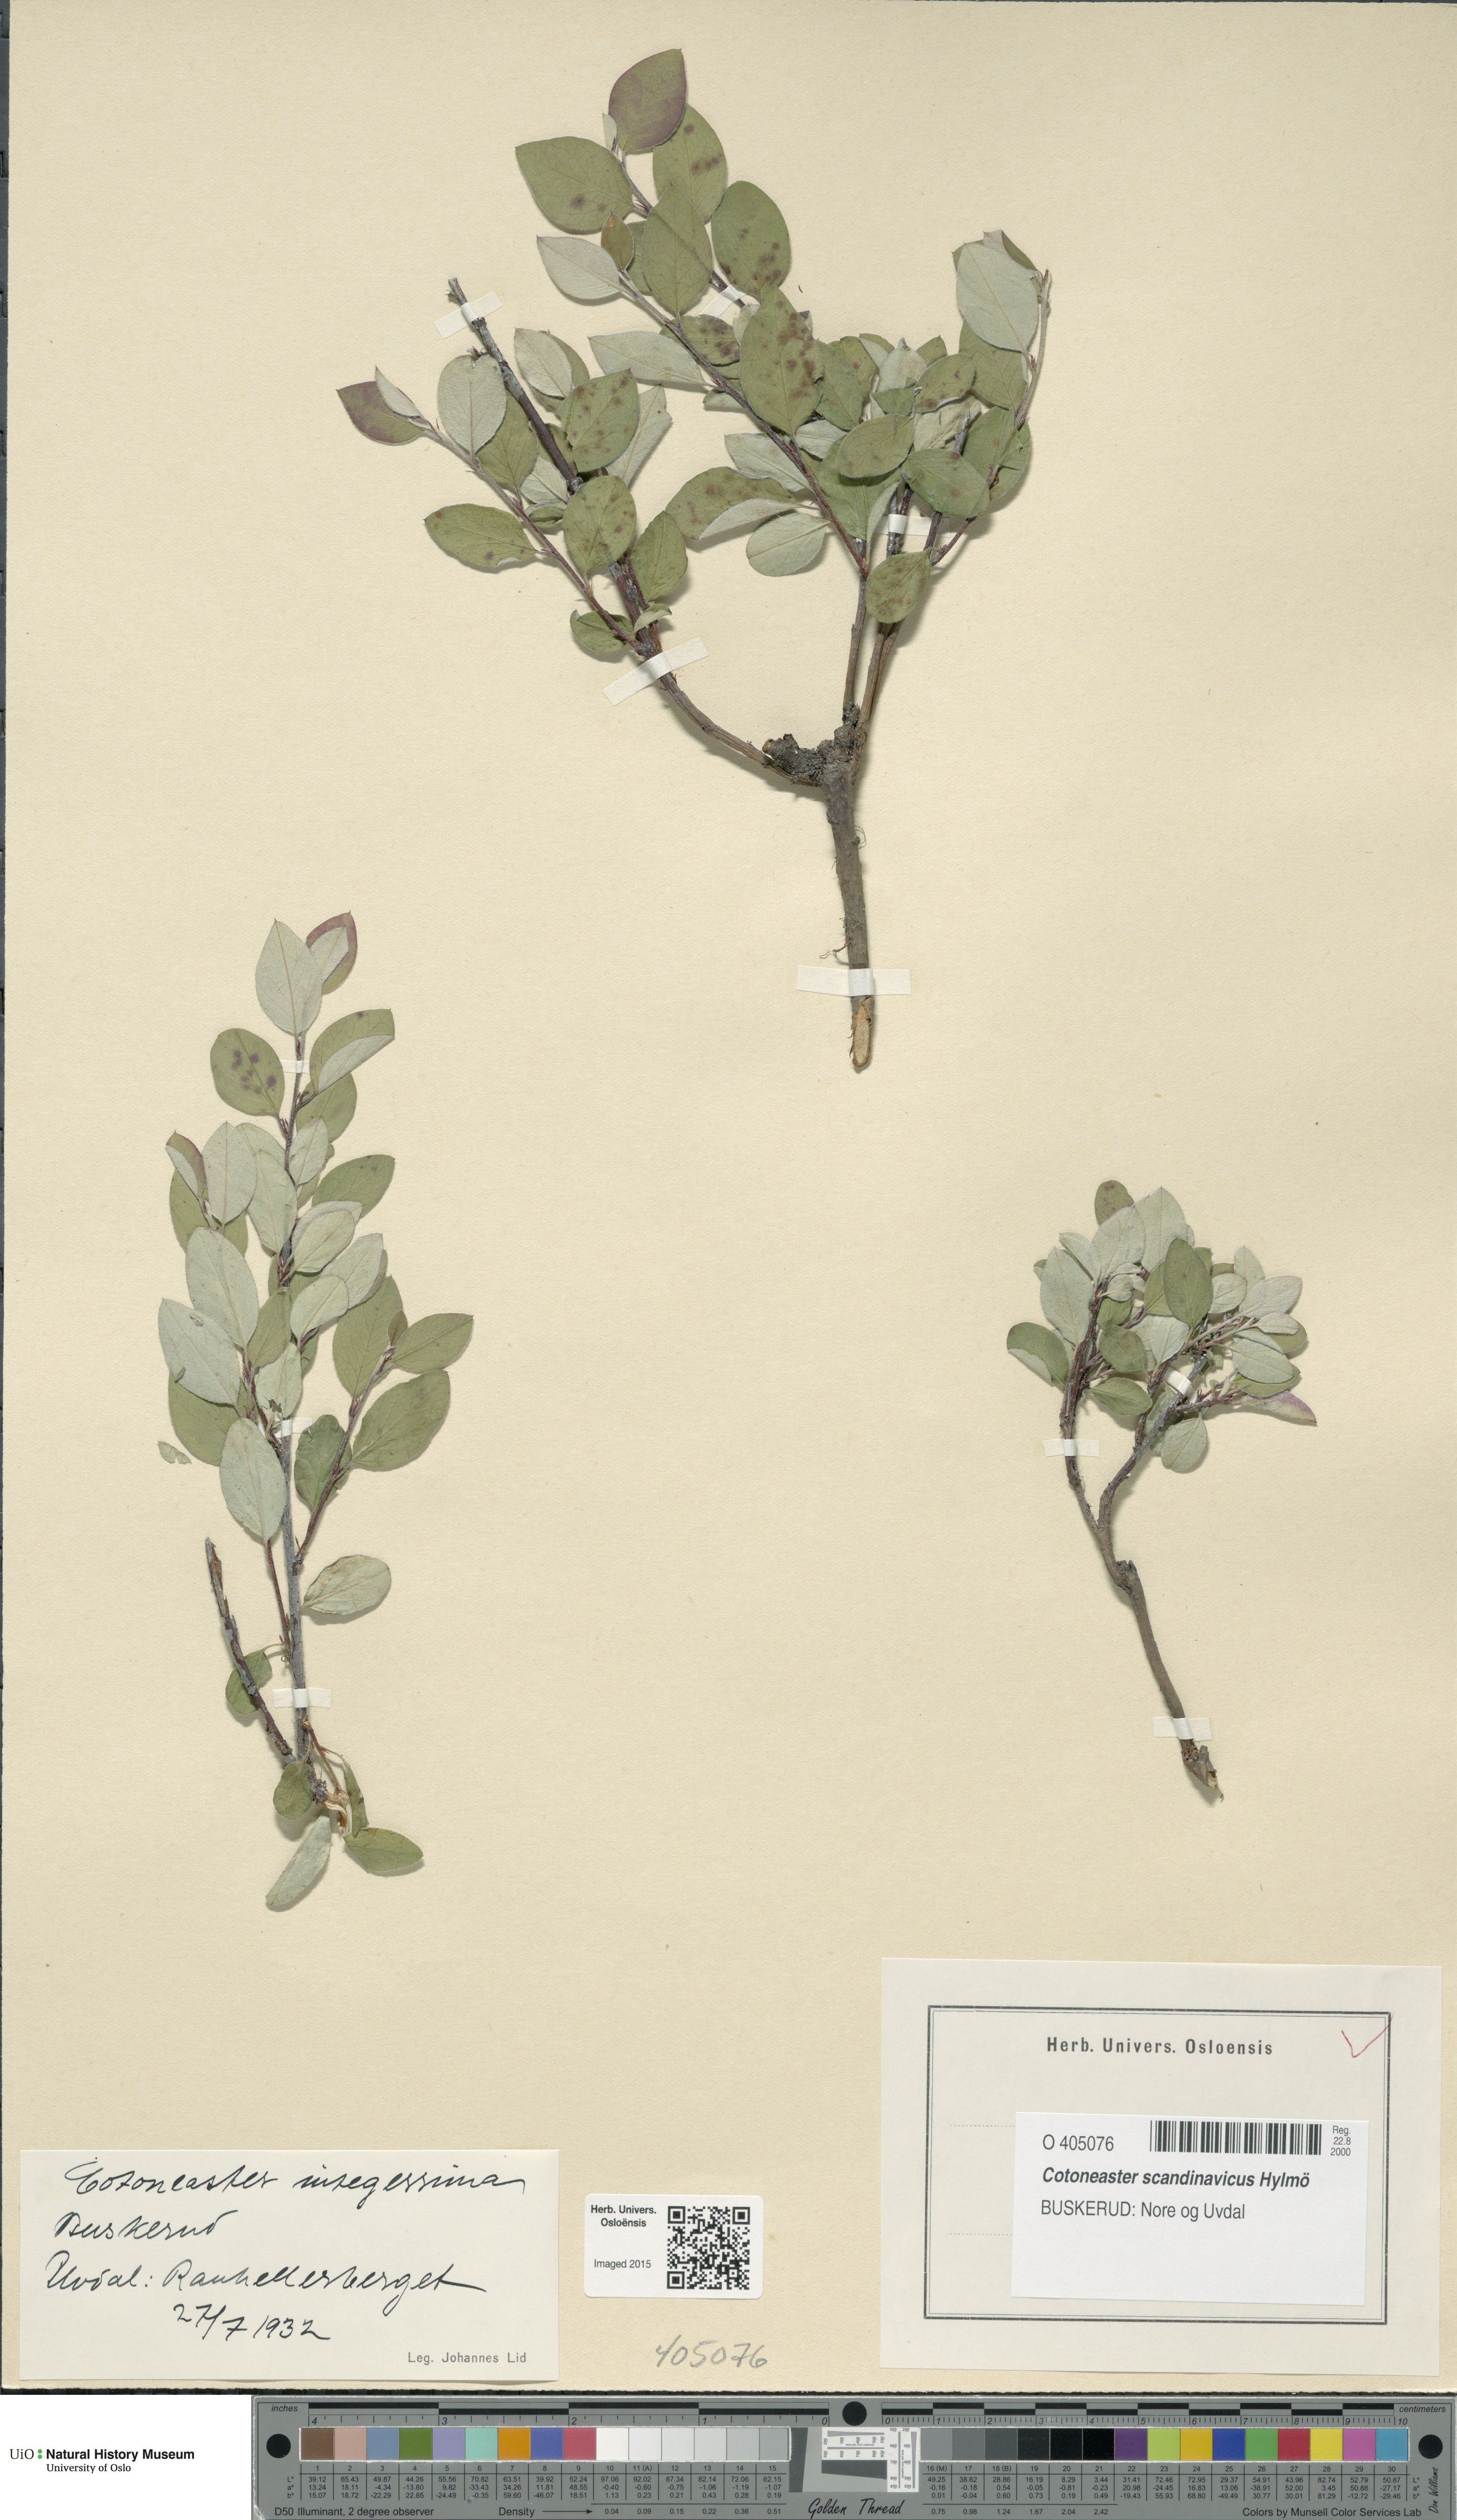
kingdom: Plantae
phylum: Tracheophyta
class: Magnoliopsida
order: Rosales
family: Rosaceae
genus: Cotoneaster
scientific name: Cotoneaster integerrimus
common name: Wild cotoneaster
